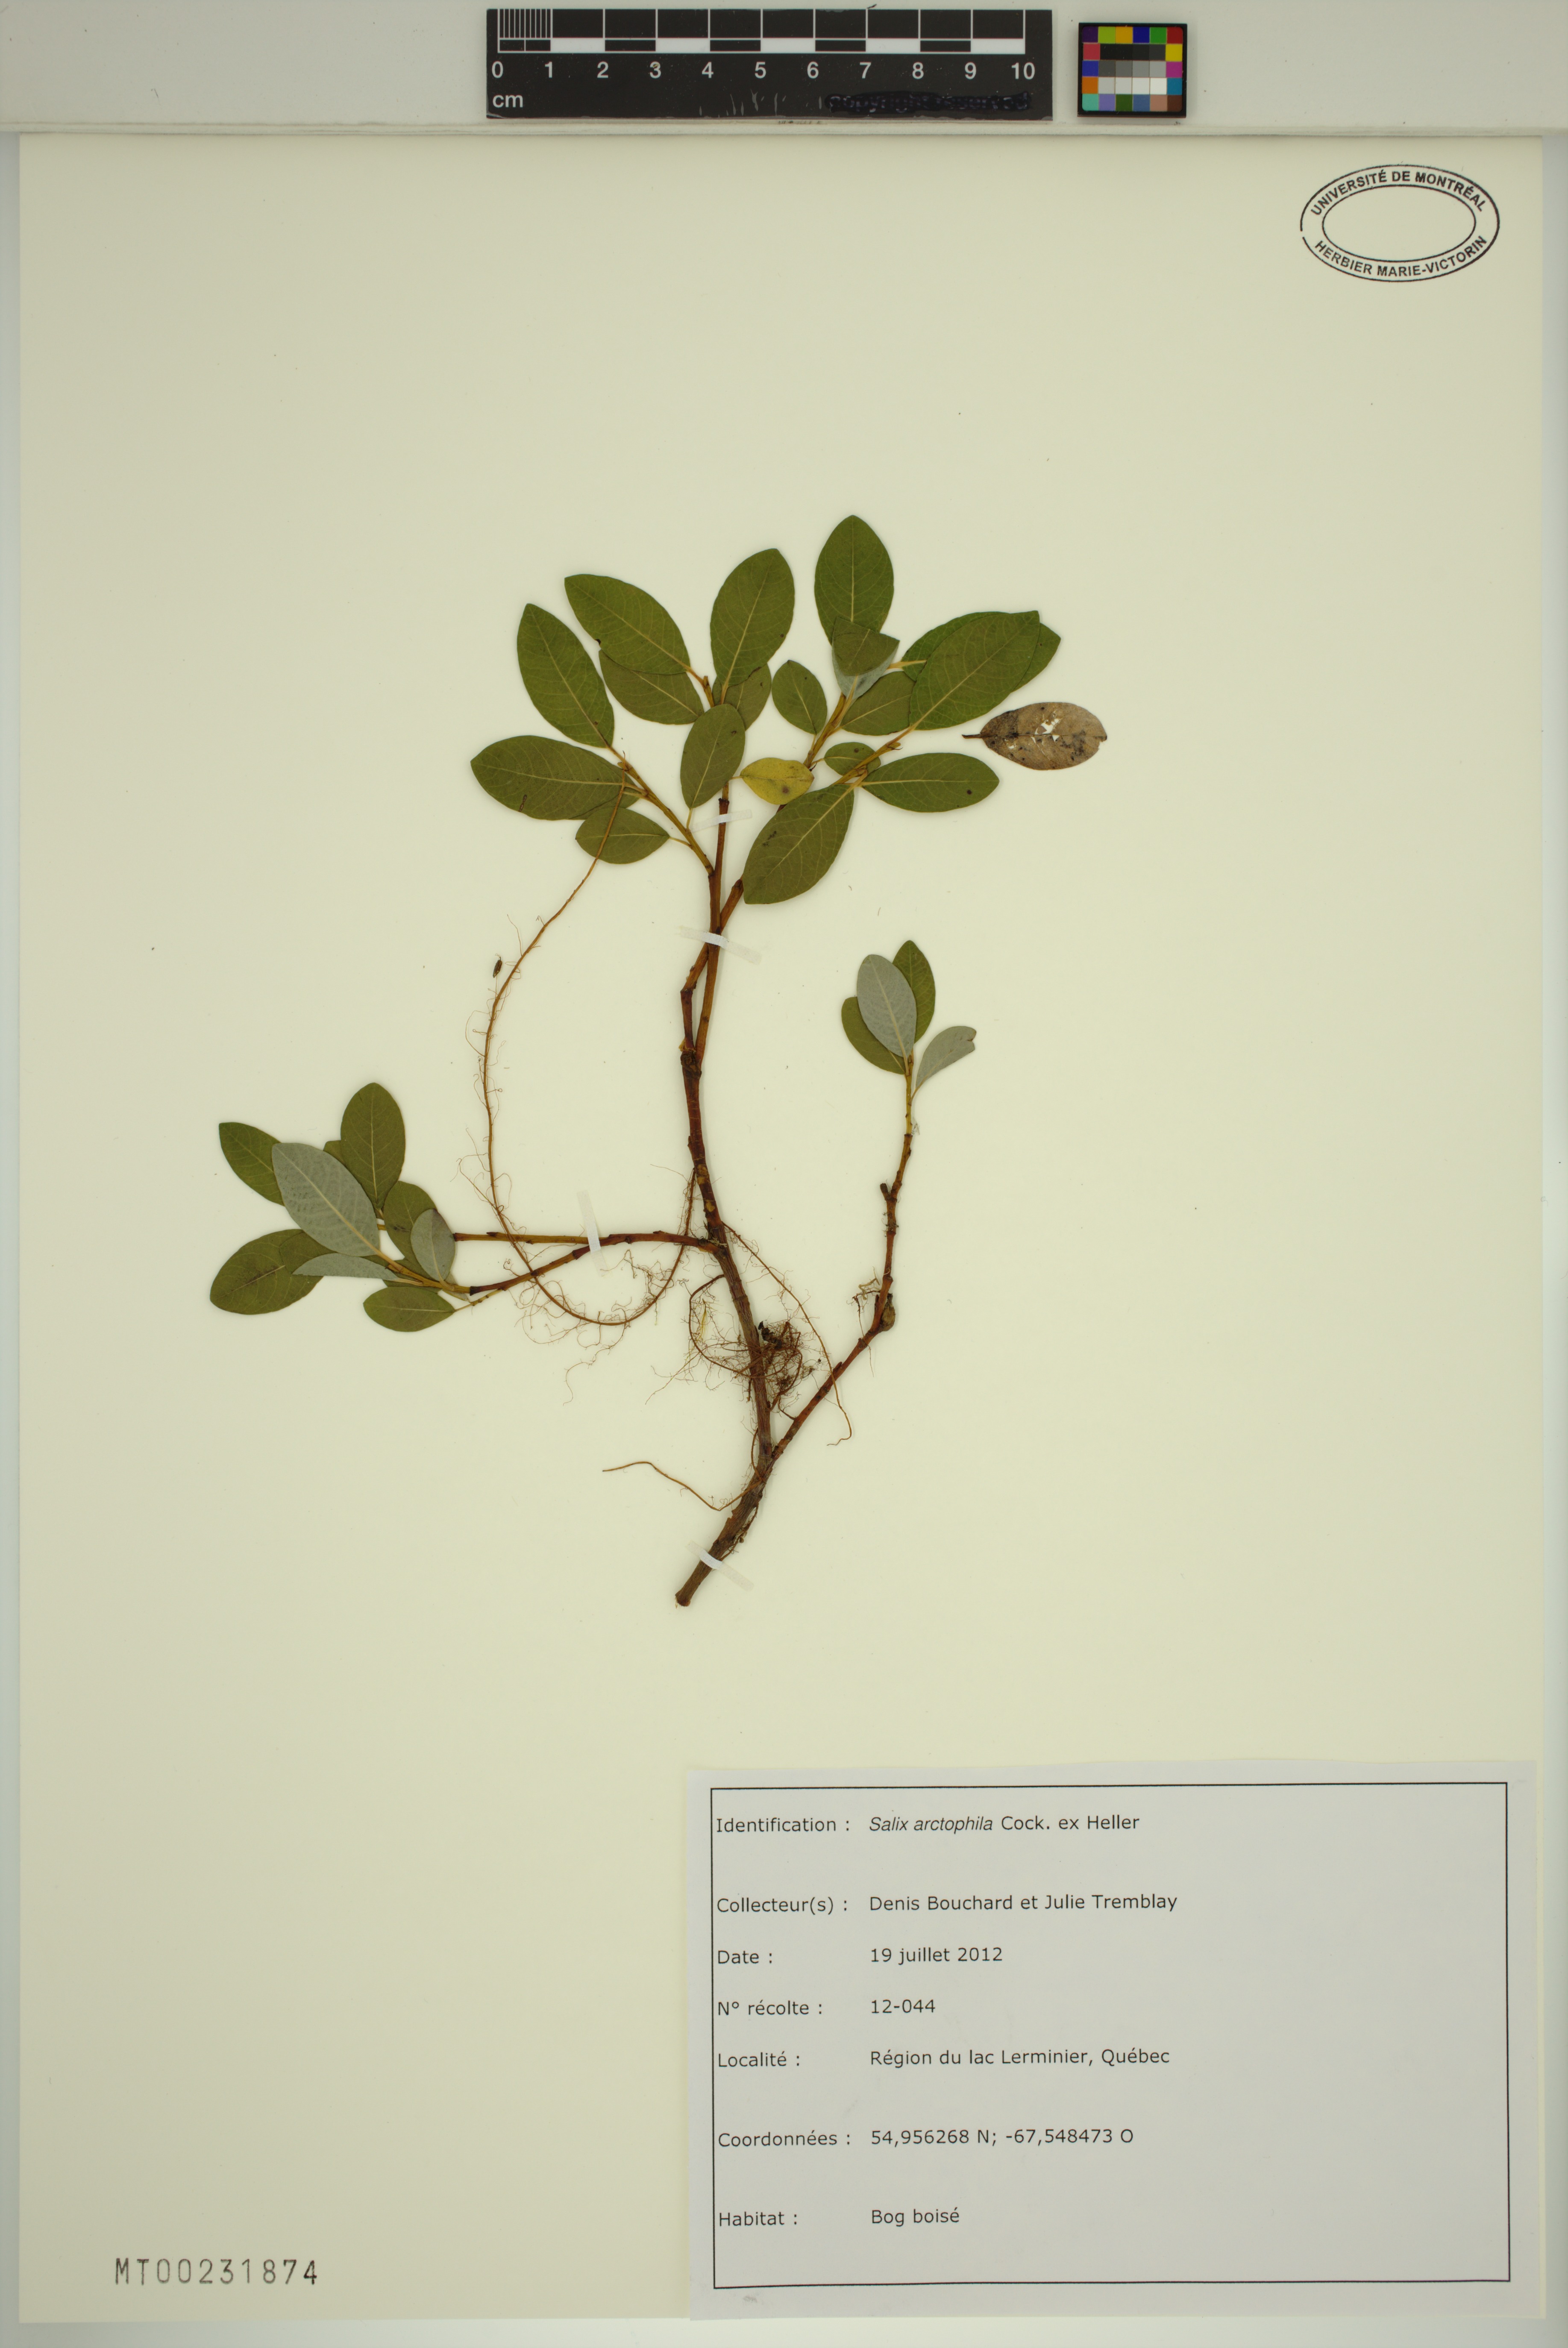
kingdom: Plantae
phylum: Tracheophyta
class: Magnoliopsida
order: Malpighiales
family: Salicaceae
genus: Salix
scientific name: Salix arctophila
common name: Greenland willow
